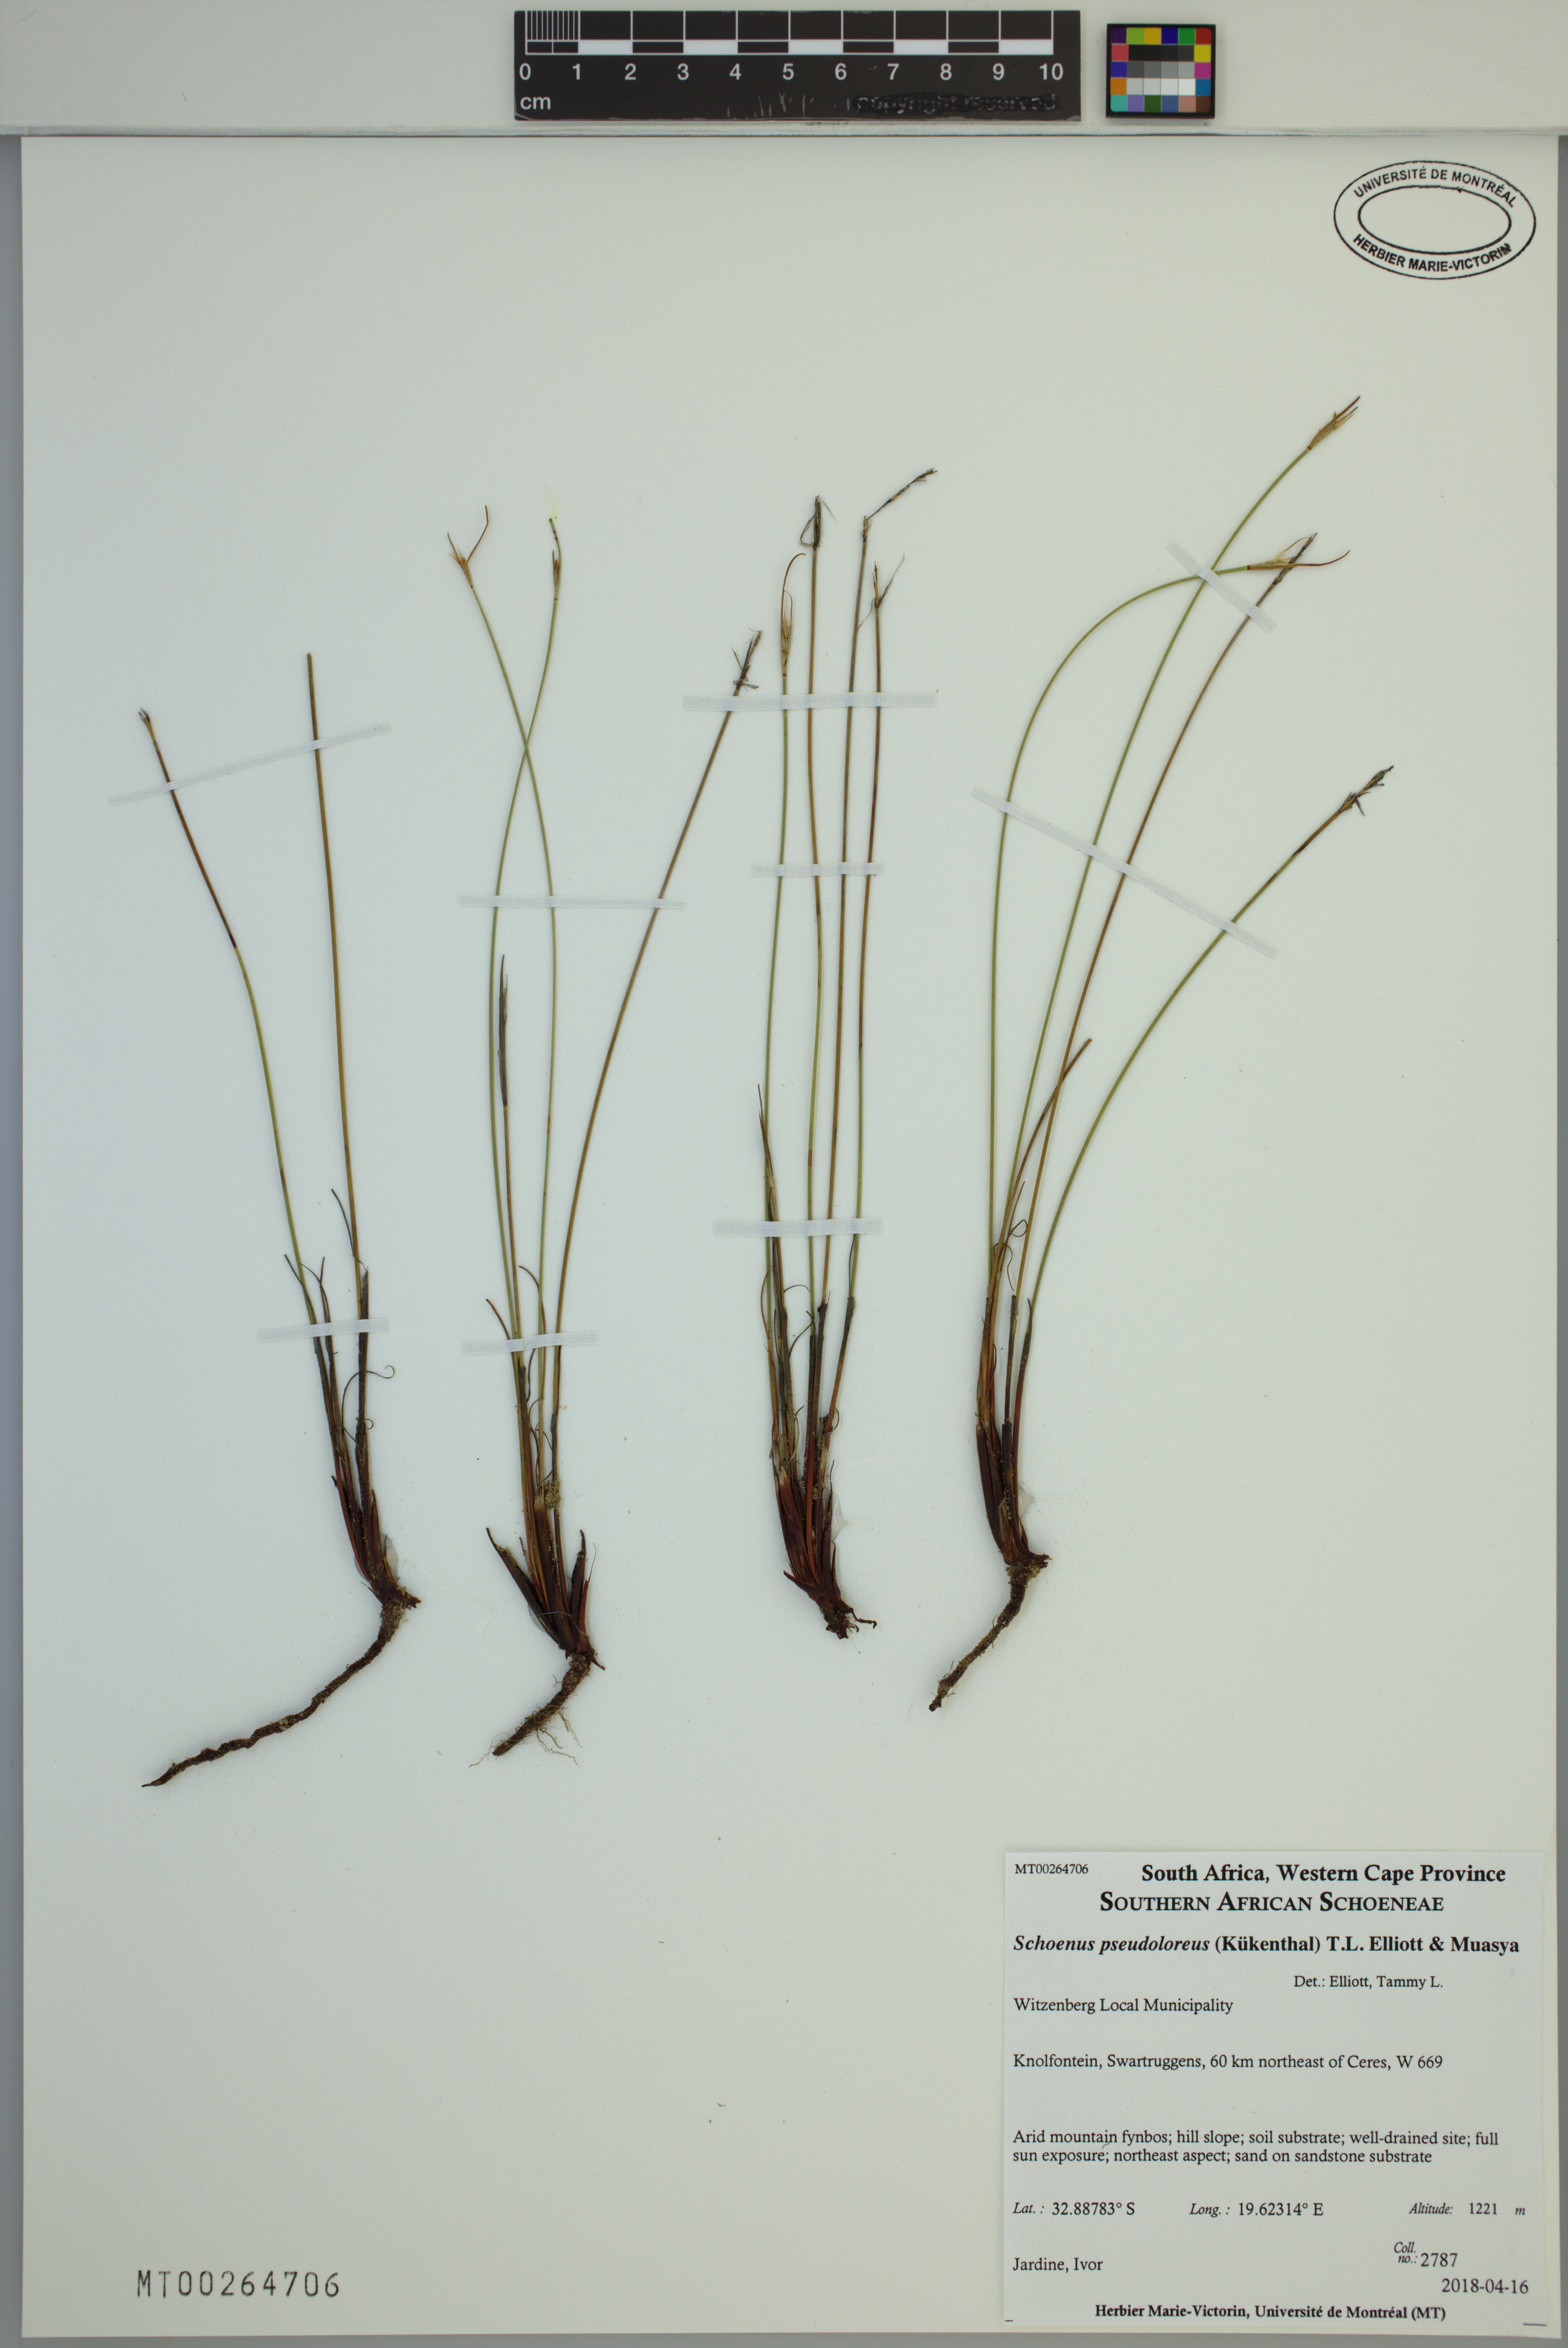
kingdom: Plantae
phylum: Tracheophyta
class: Liliopsida
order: Poales
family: Cyperaceae
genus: Schoenus
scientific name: Schoenus pseudoloreus
